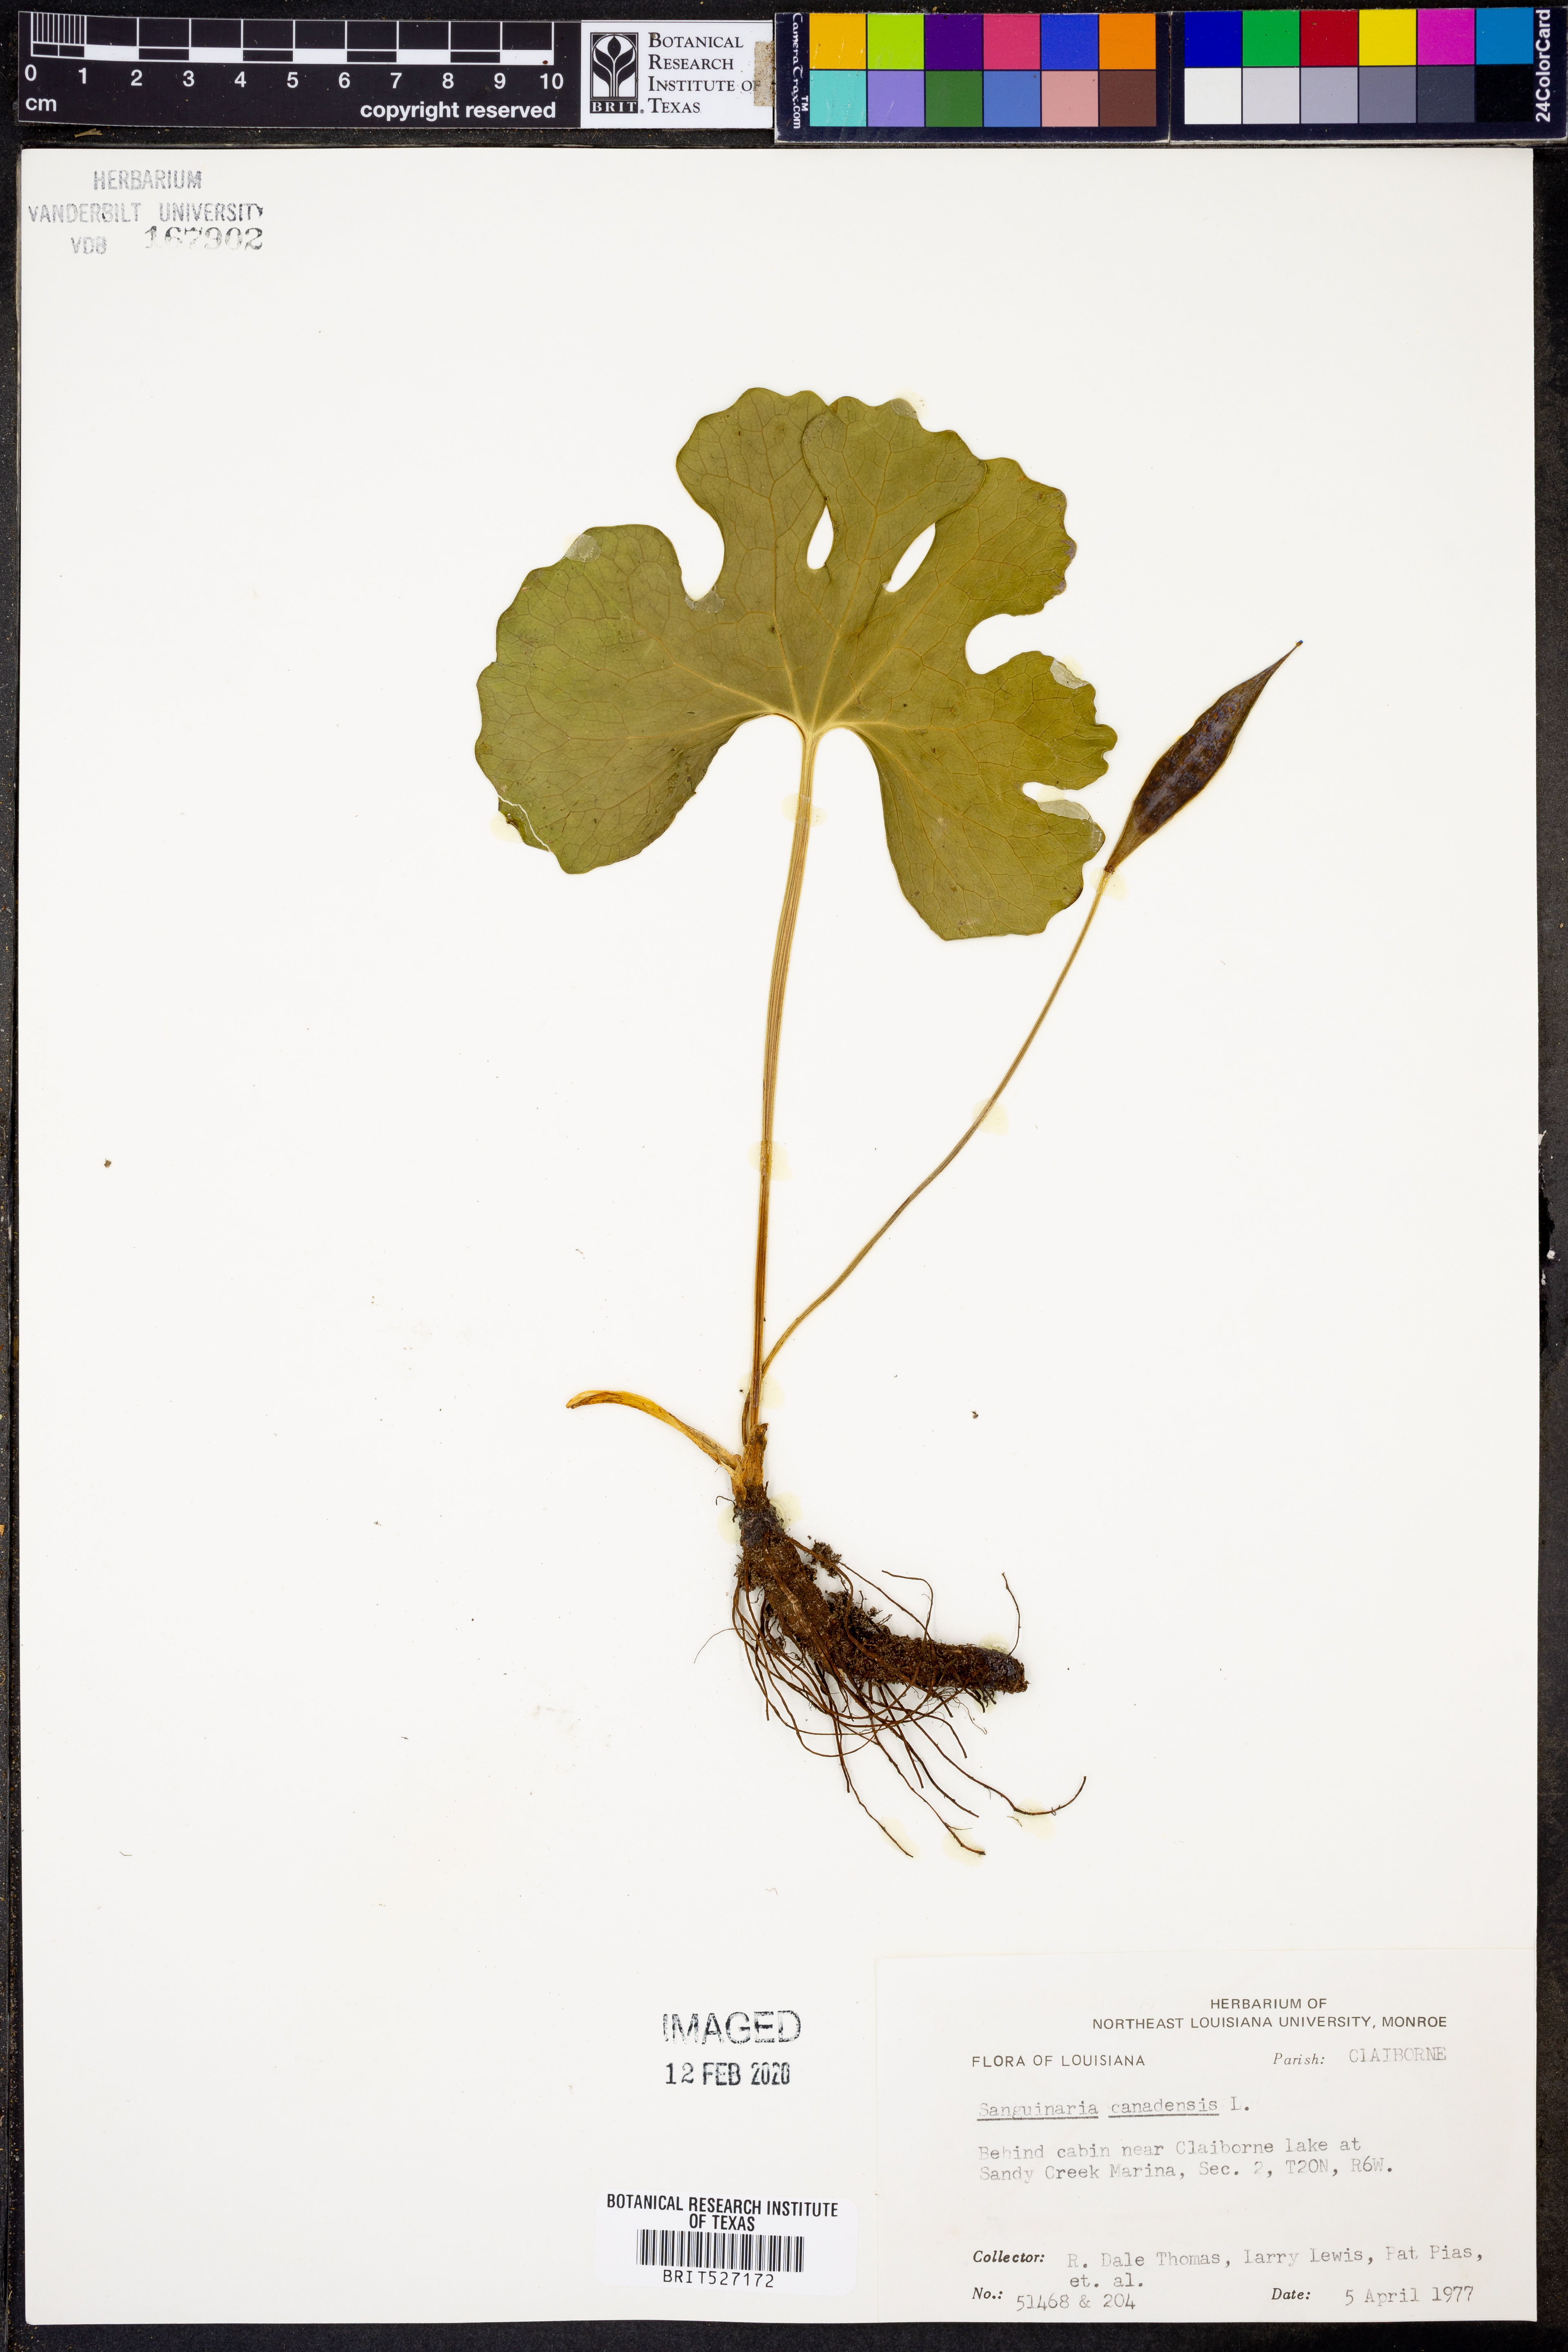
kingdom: Plantae
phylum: Tracheophyta
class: Magnoliopsida
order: Ranunculales
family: Papaveraceae
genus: Sanguinaria
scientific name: Sanguinaria canadensis
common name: Bloodroot
